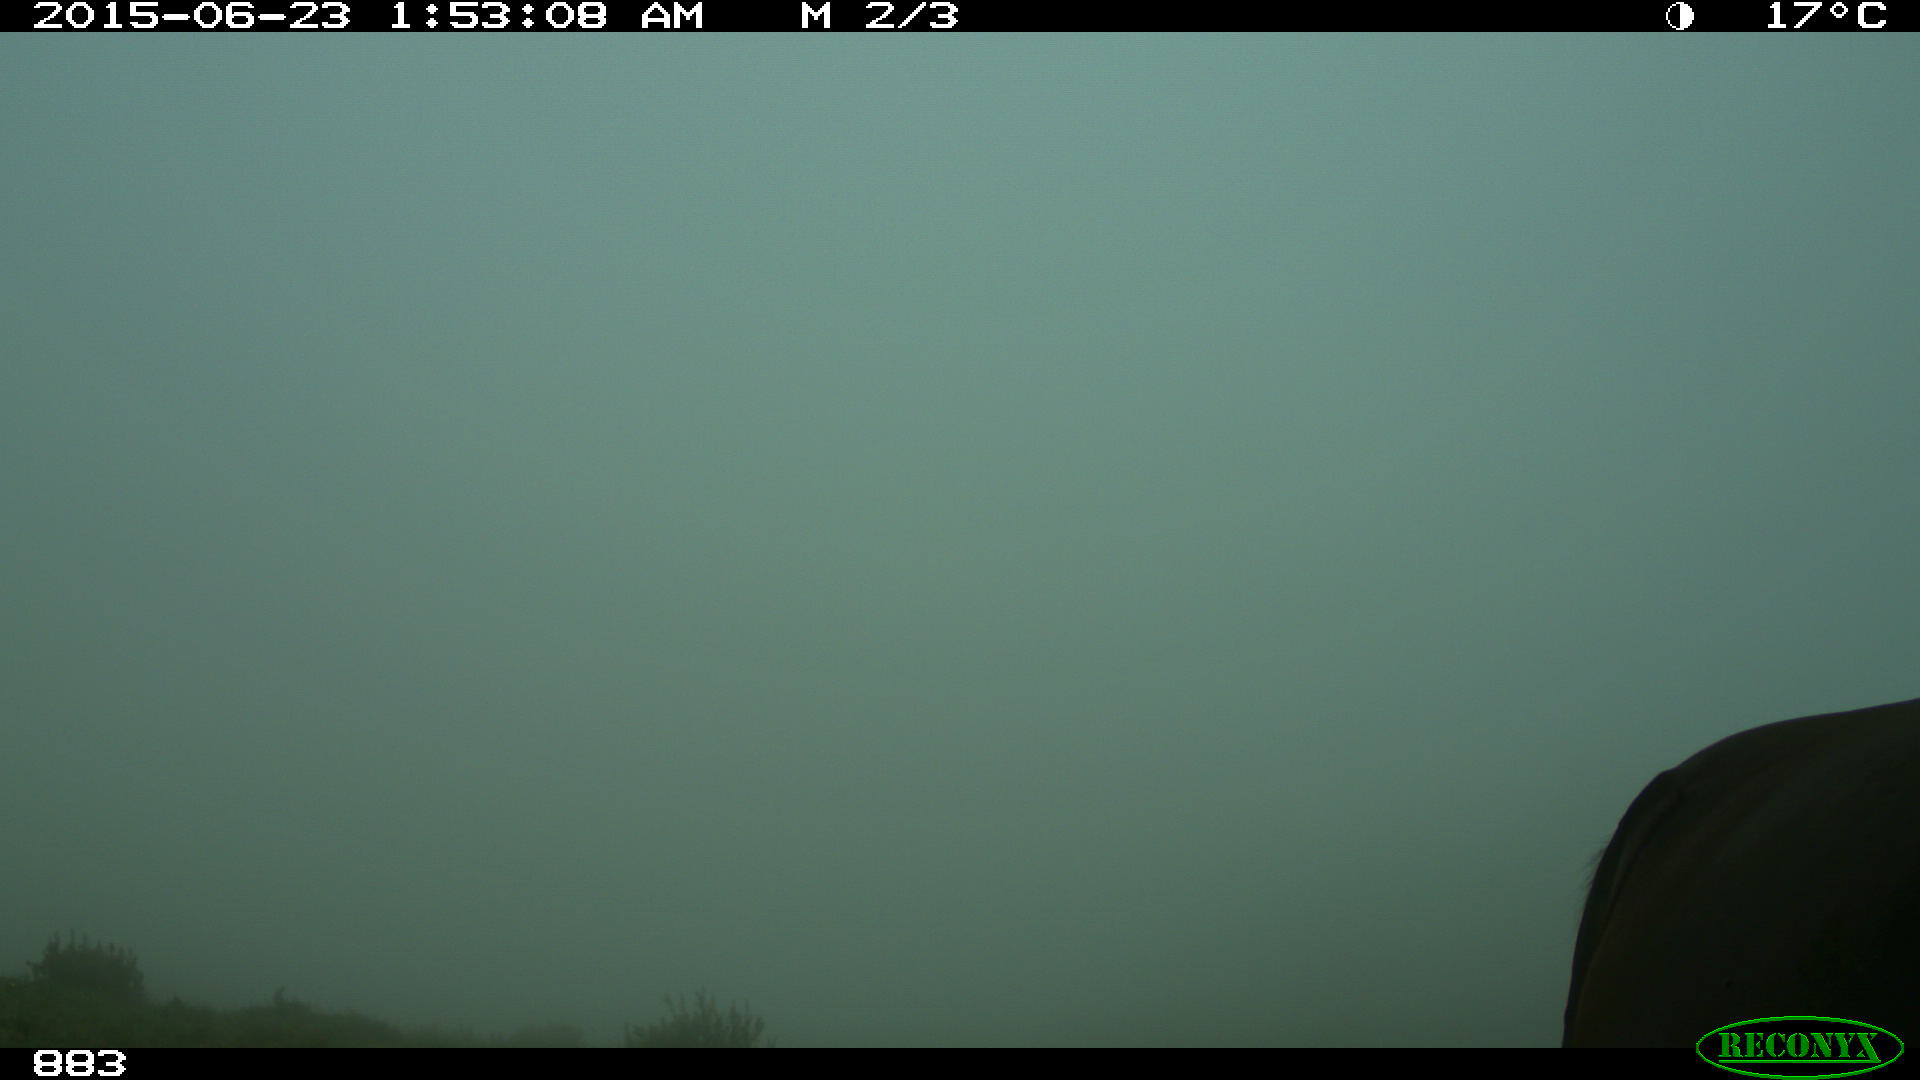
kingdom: Animalia
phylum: Chordata
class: Mammalia
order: Perissodactyla
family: Equidae
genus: Equus
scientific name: Equus caballus
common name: Horse
